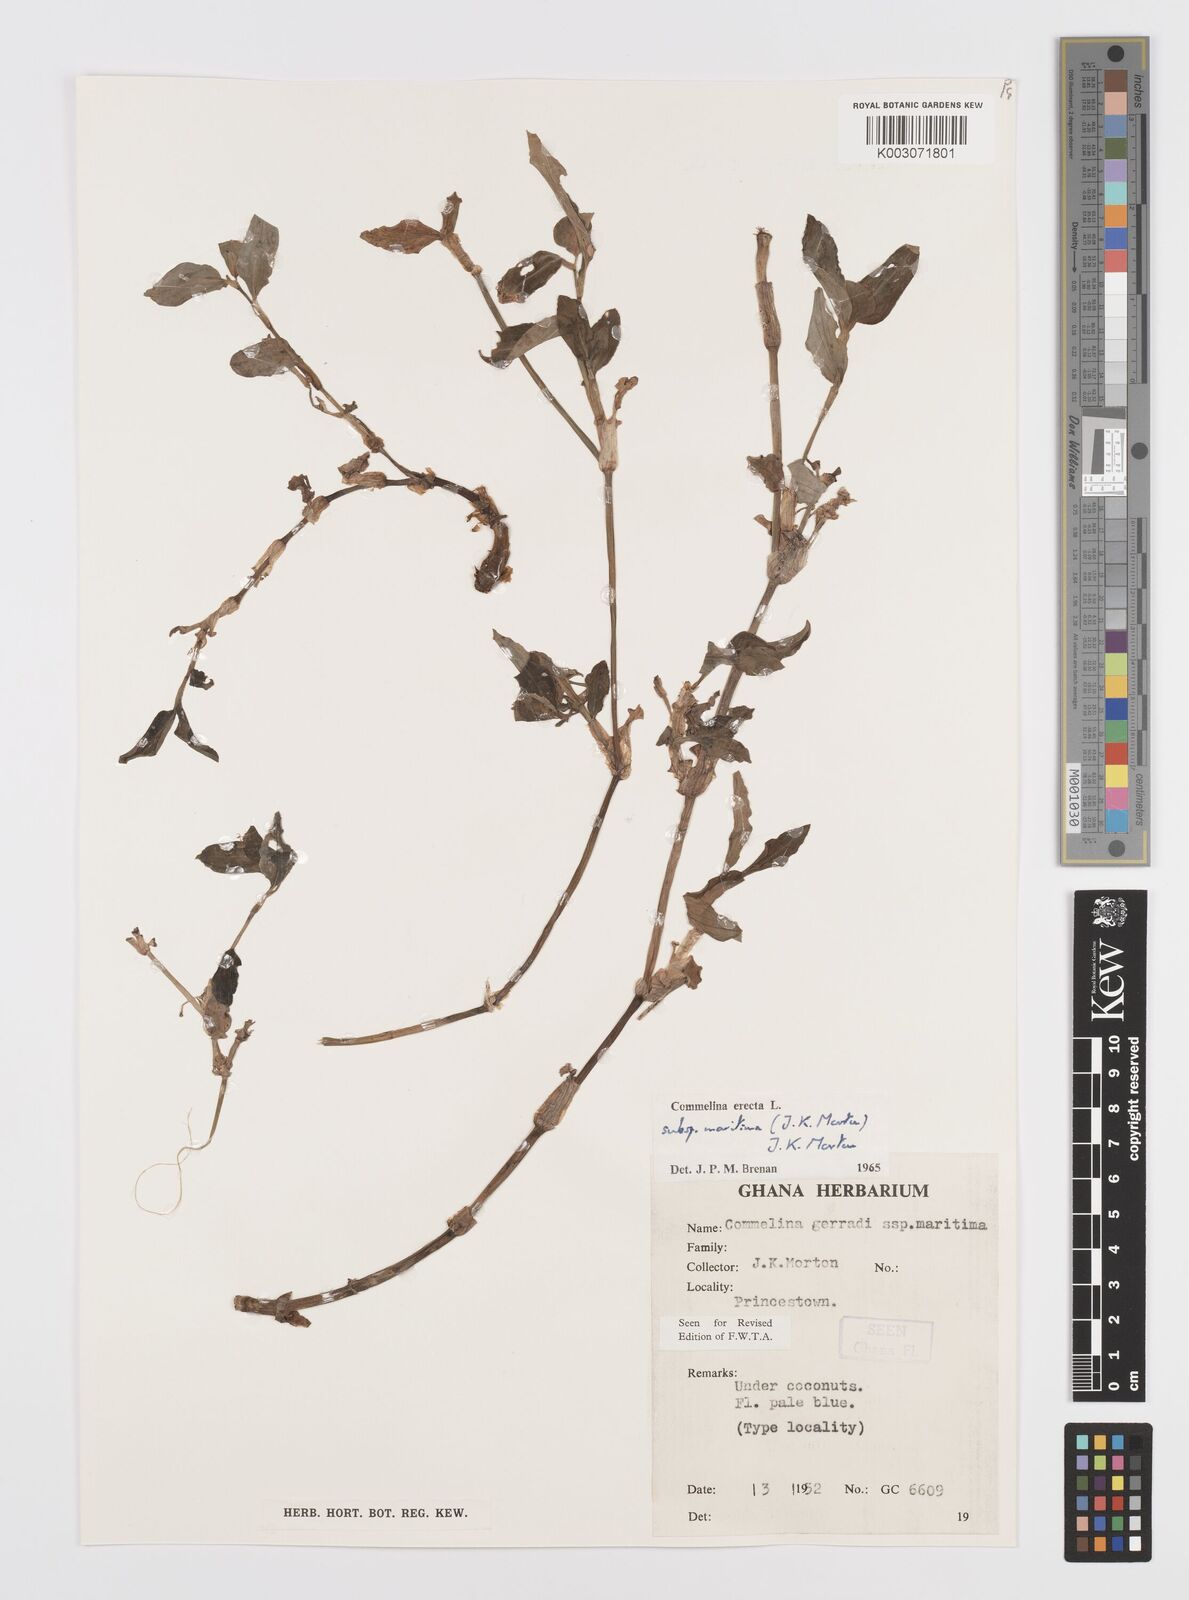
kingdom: Plantae
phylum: Tracheophyta
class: Liliopsida
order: Commelinales
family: Commelinaceae
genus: Commelina
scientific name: Commelina erecta
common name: Blousel blommetjie
